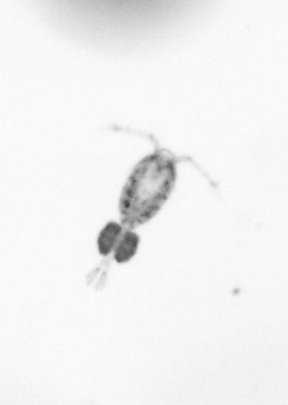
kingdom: Animalia
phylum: Arthropoda
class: Copepoda
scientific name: Copepoda
